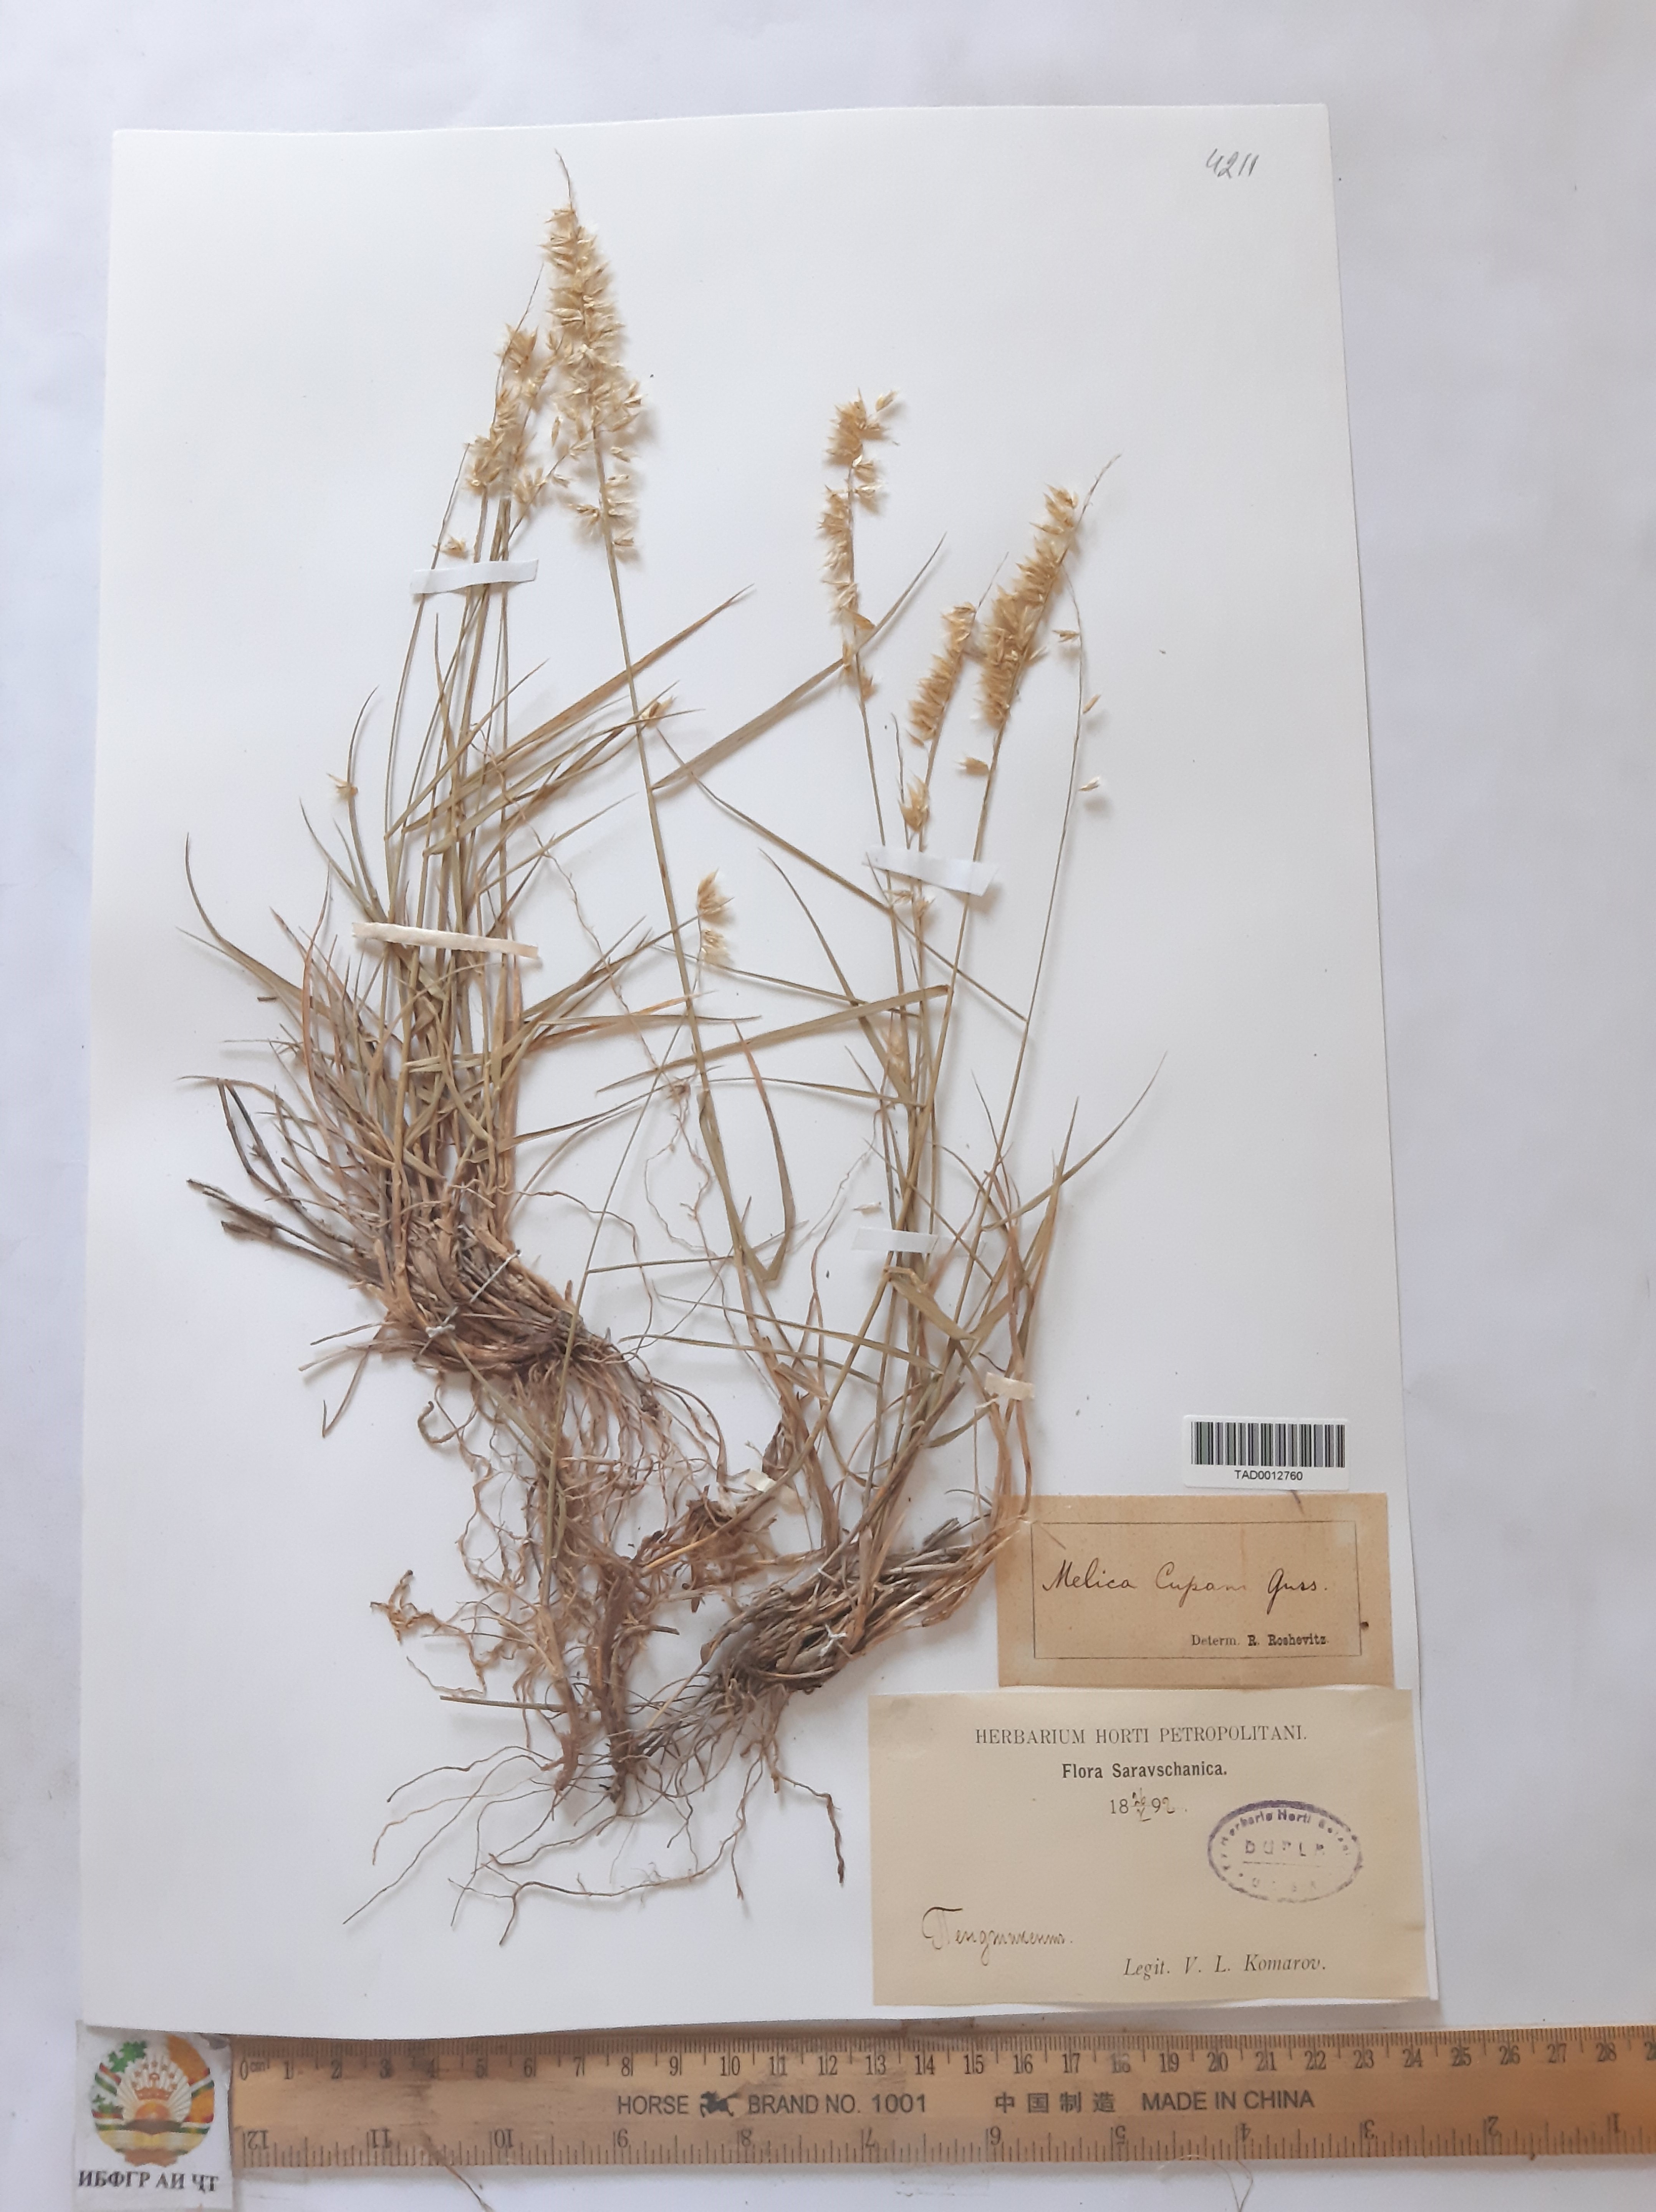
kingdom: Plantae
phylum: Tracheophyta
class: Liliopsida
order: Poales
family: Poaceae
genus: Melica
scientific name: Melica persica
